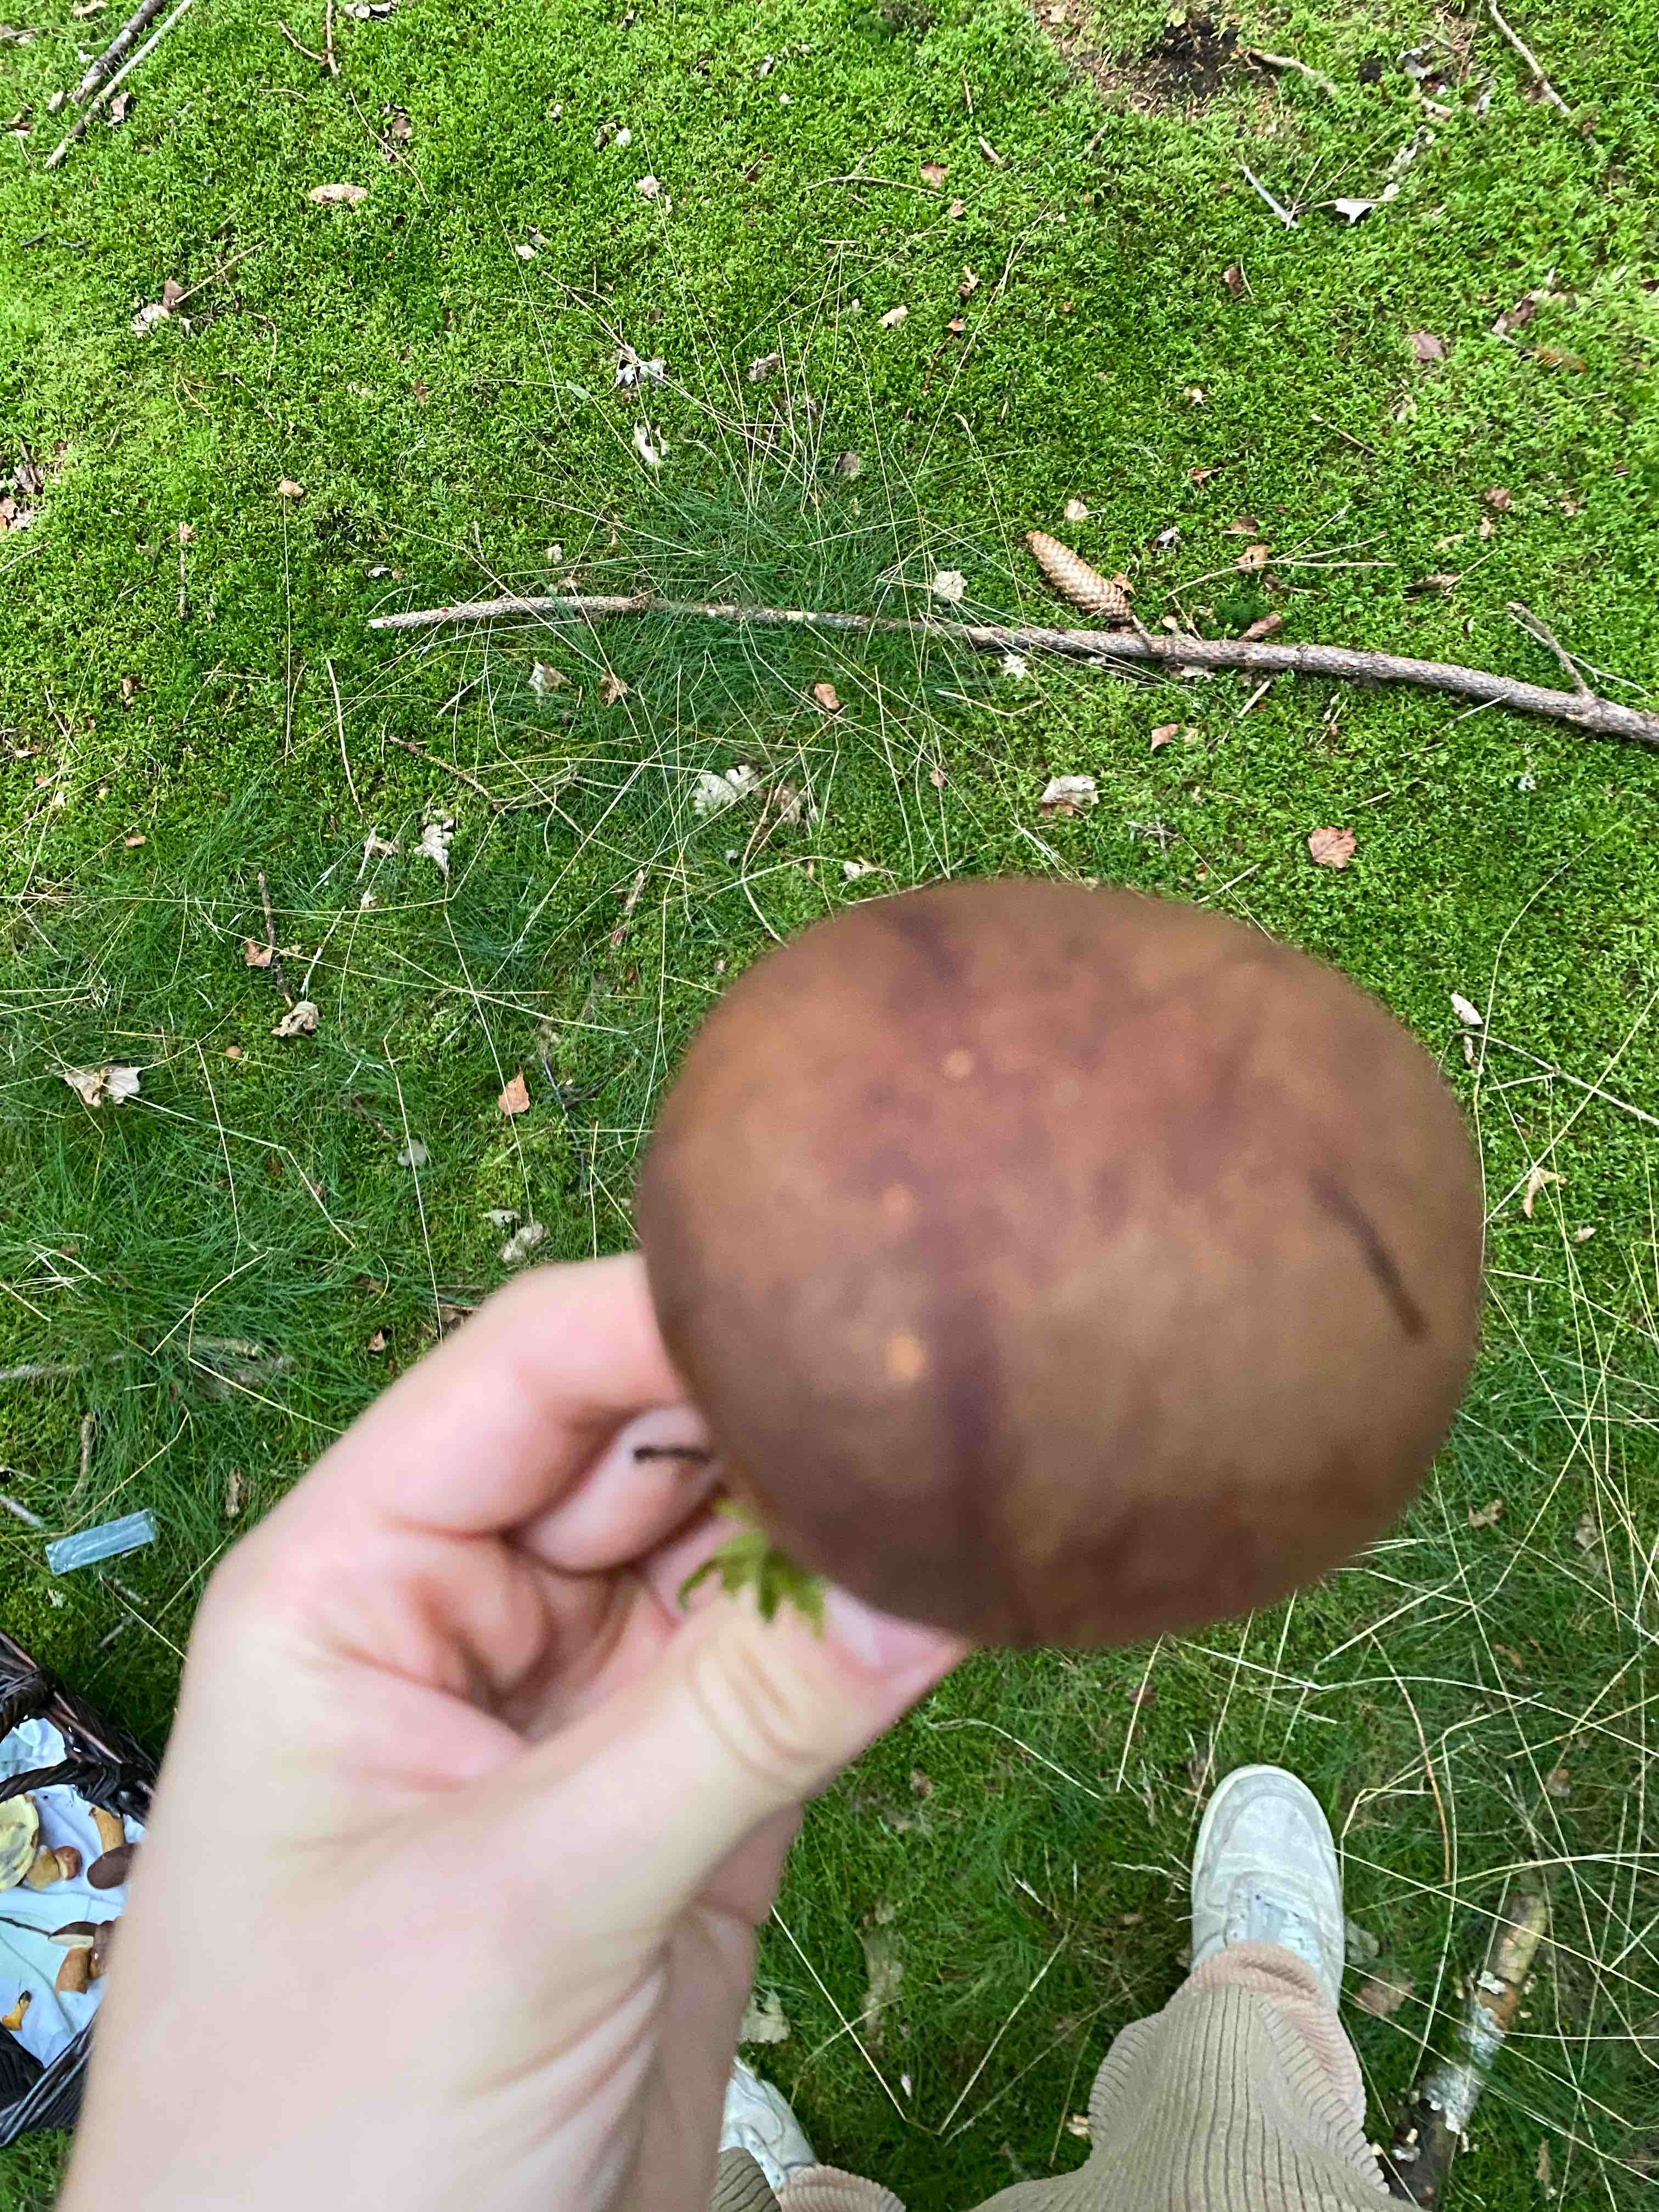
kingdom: Fungi
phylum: Basidiomycota
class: Agaricomycetes
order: Boletales
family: Boletaceae
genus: Imleria
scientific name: Imleria badia
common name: brunstokket rørhat
